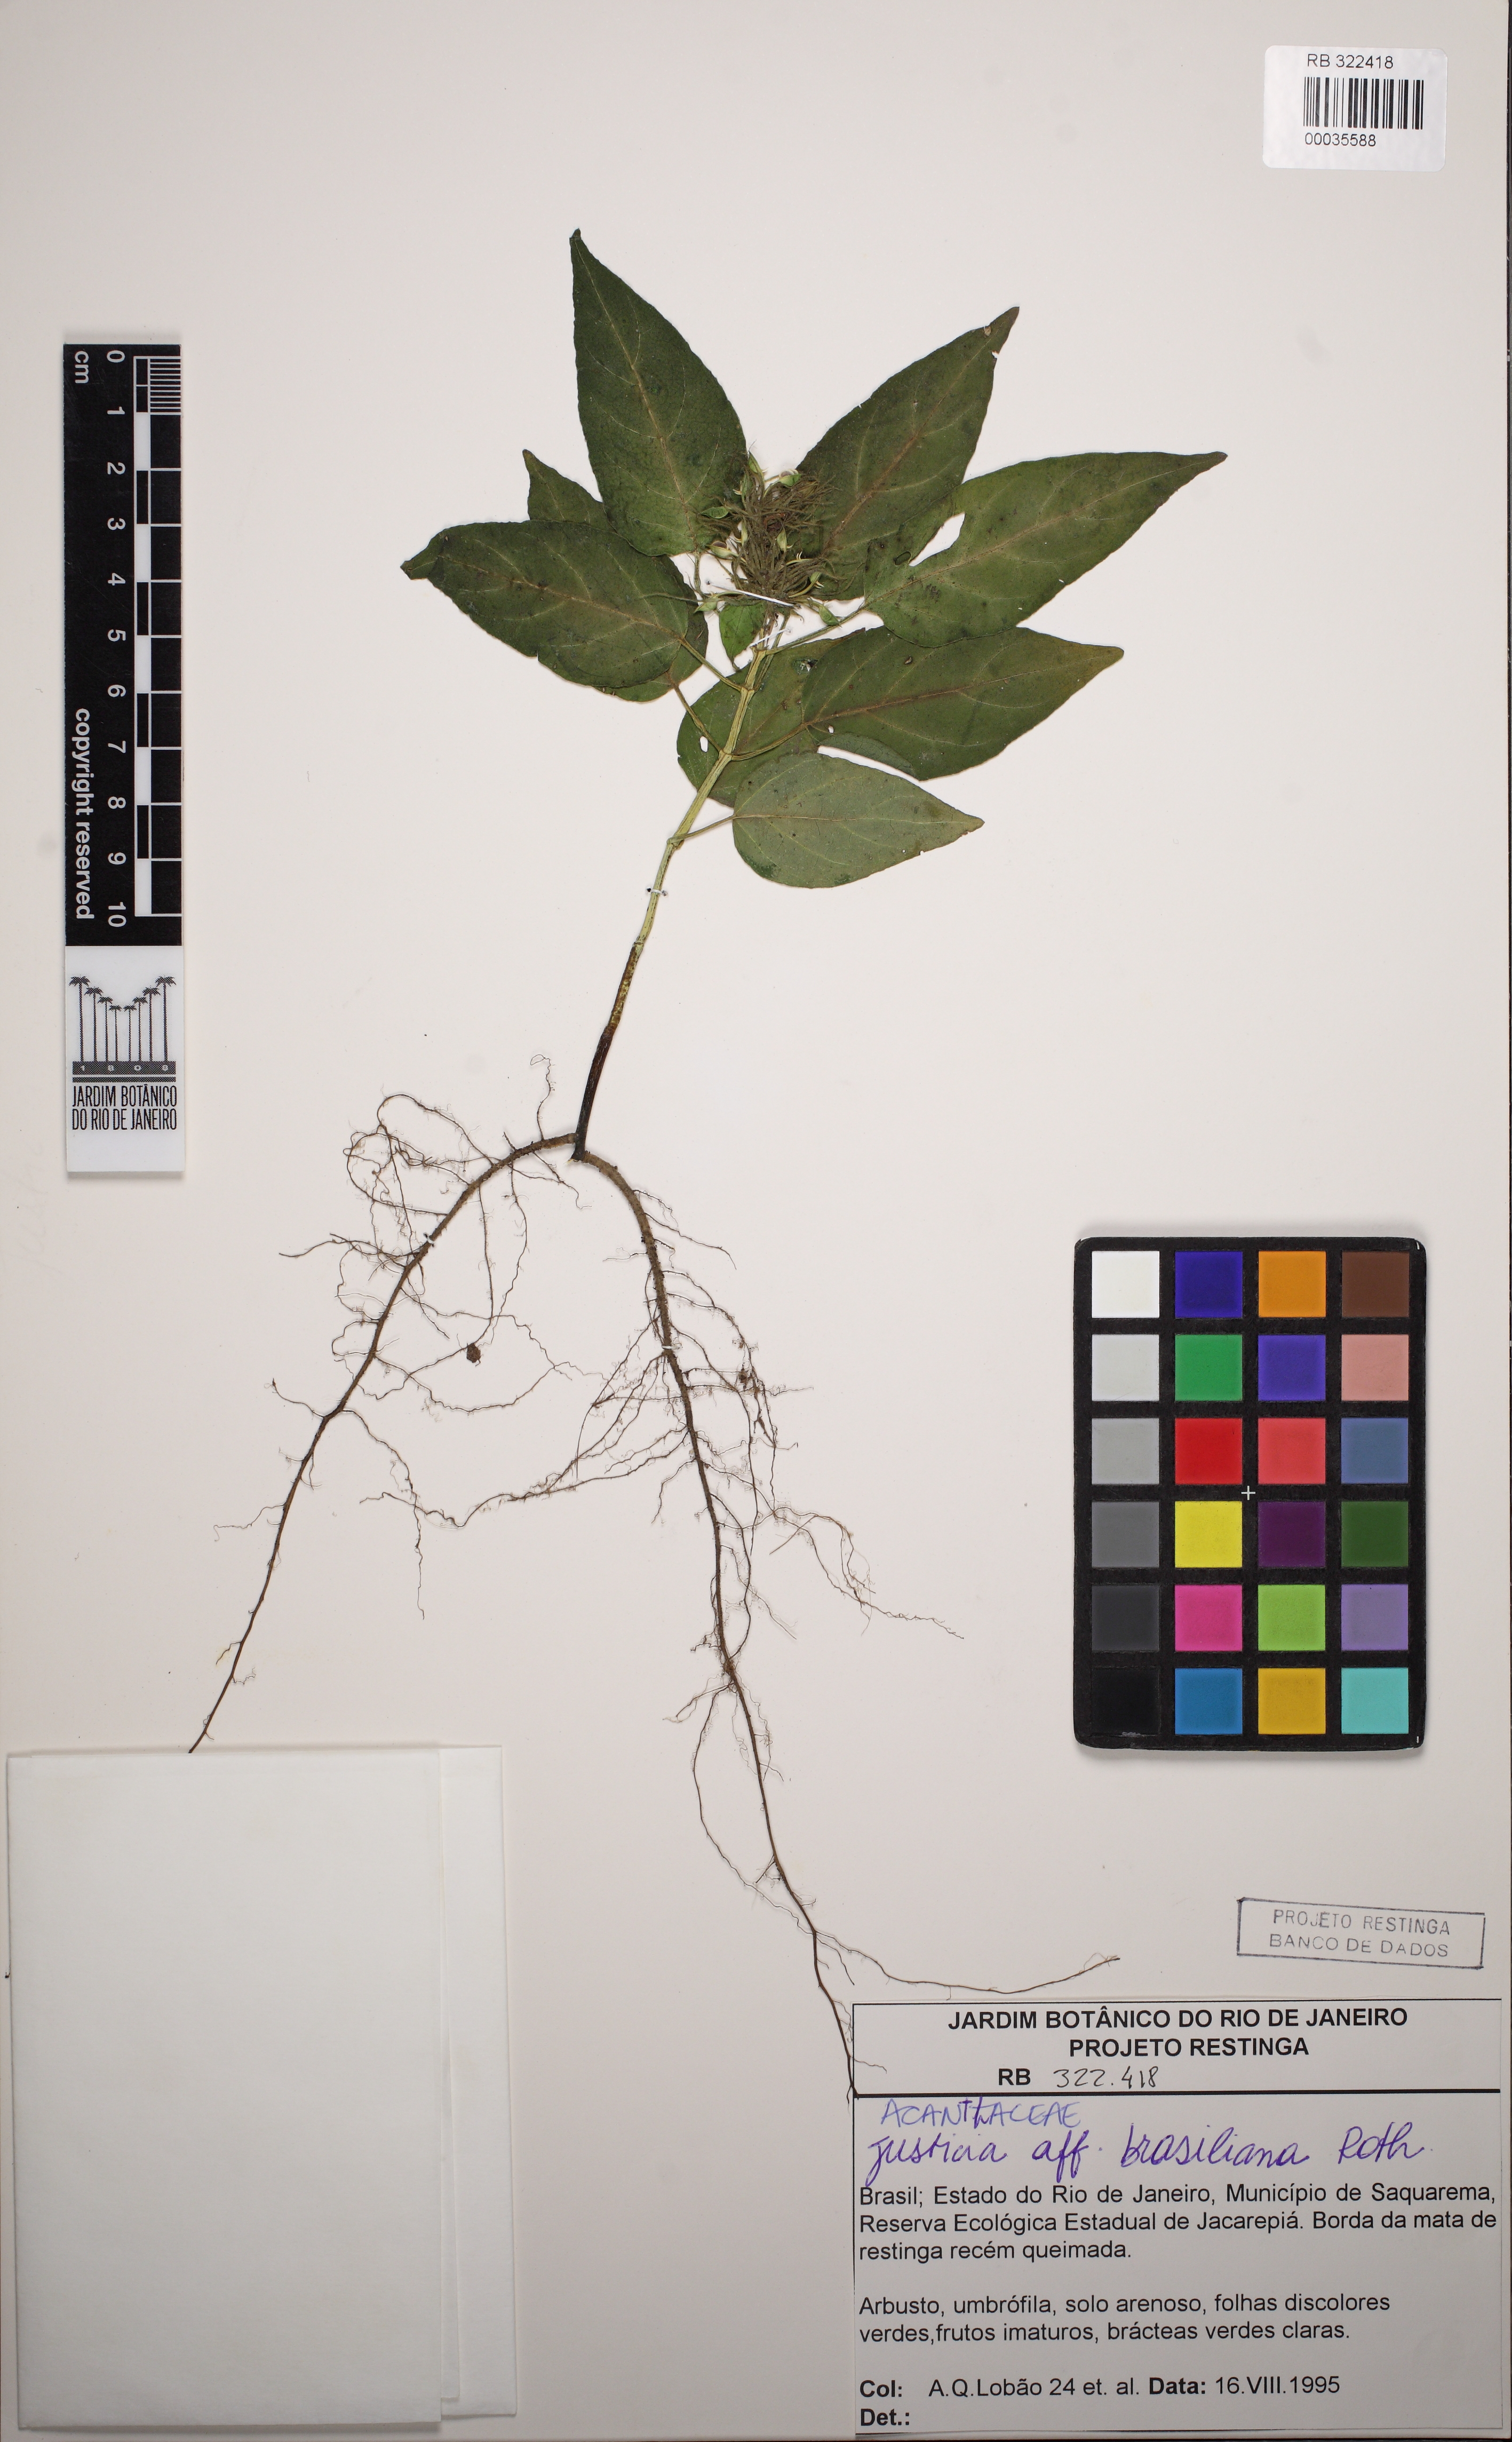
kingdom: Plantae
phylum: Tracheophyta
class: Magnoliopsida
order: Lamiales
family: Acanthaceae
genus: Justicia
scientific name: Justicia brasiliana
